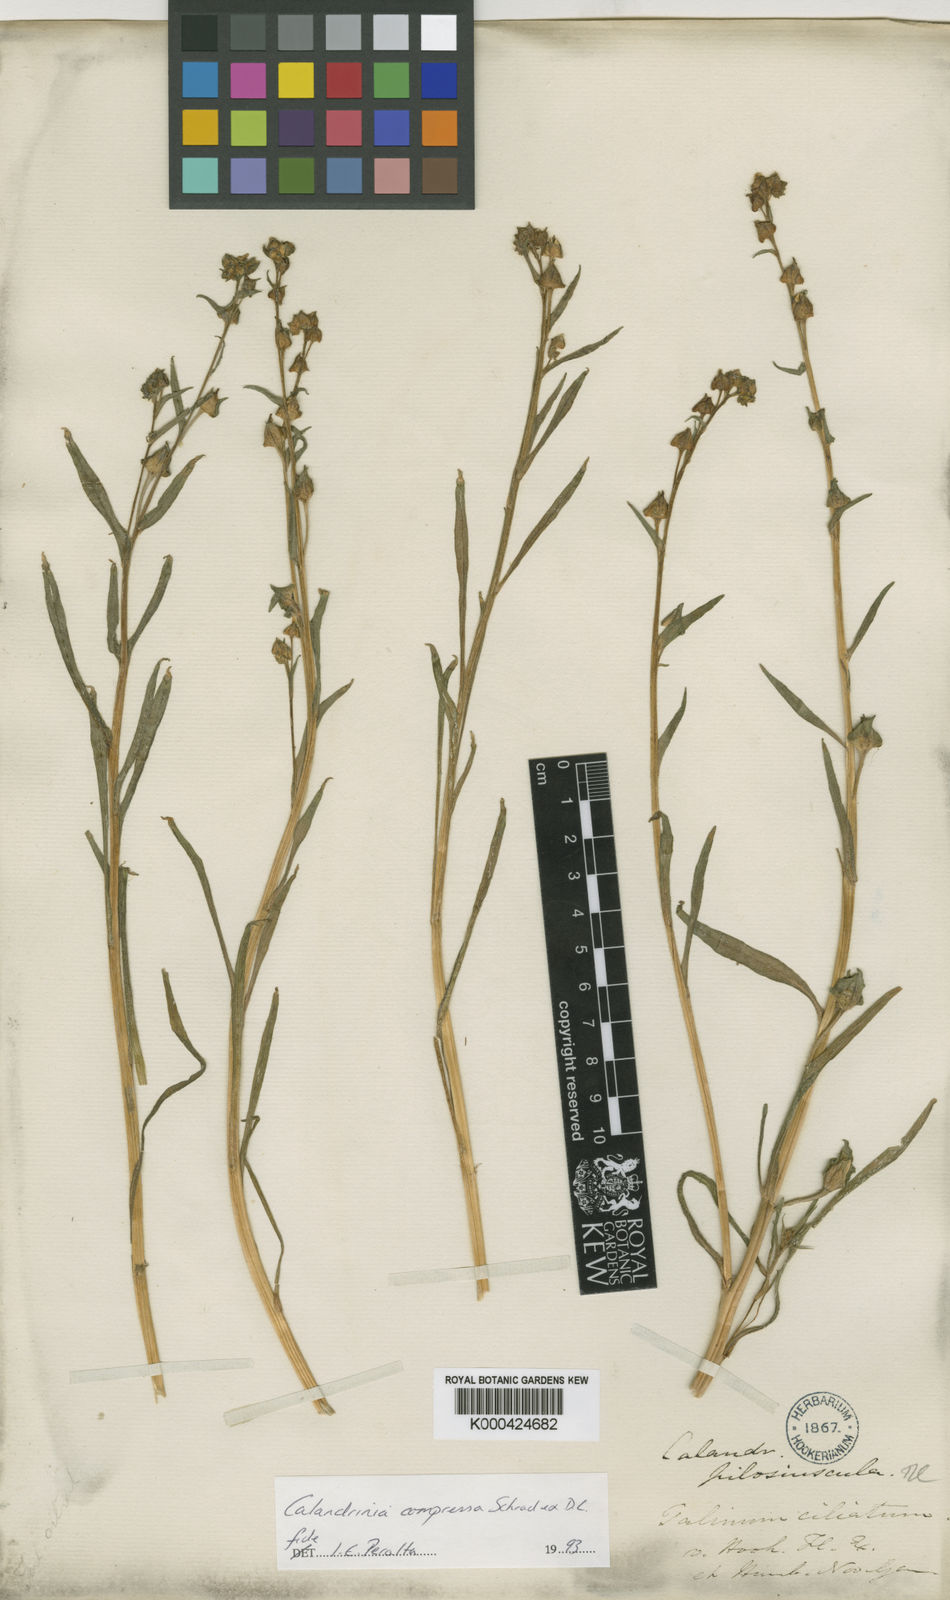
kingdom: Plantae
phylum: Tracheophyta
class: Magnoliopsida
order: Caryophyllales
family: Montiaceae
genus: Calandrinia
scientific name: Calandrinia pilosiuscula
